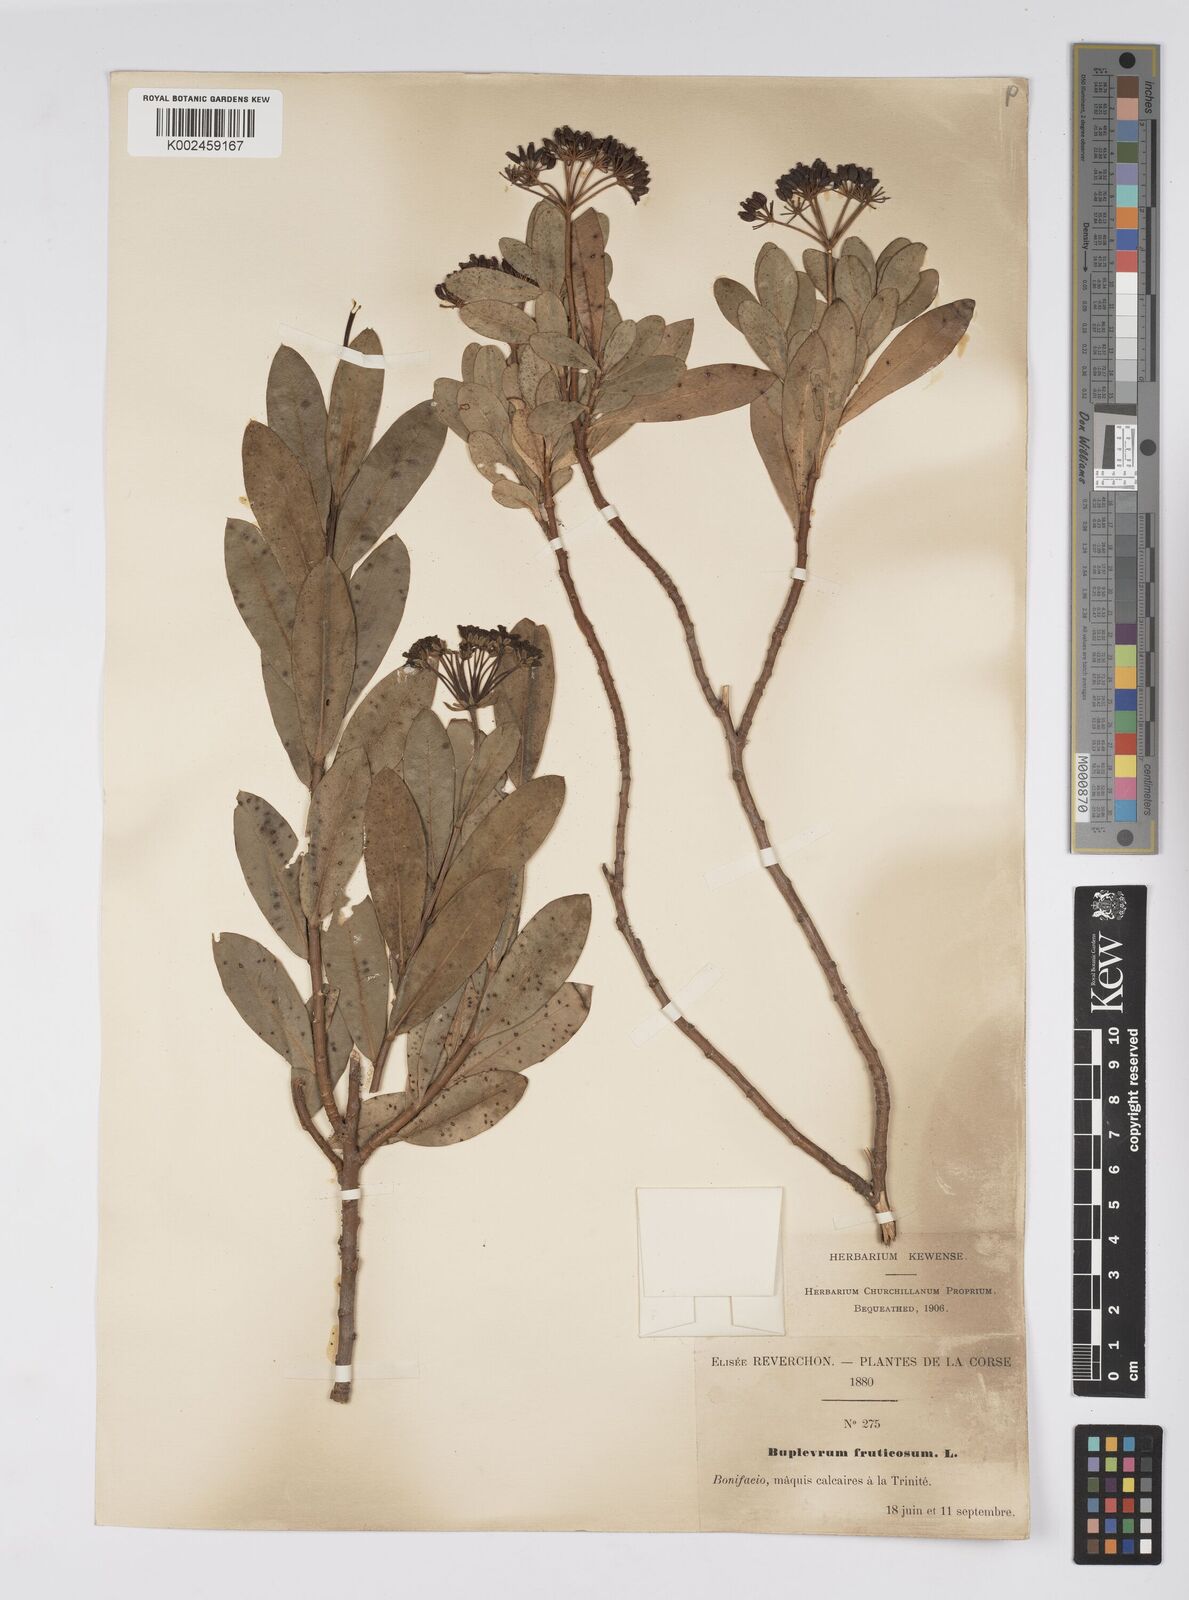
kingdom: Plantae
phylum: Tracheophyta
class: Magnoliopsida
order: Apiales
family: Apiaceae
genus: Bupleurum
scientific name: Bupleurum fruticosum
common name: Shrubby hare's-ear
